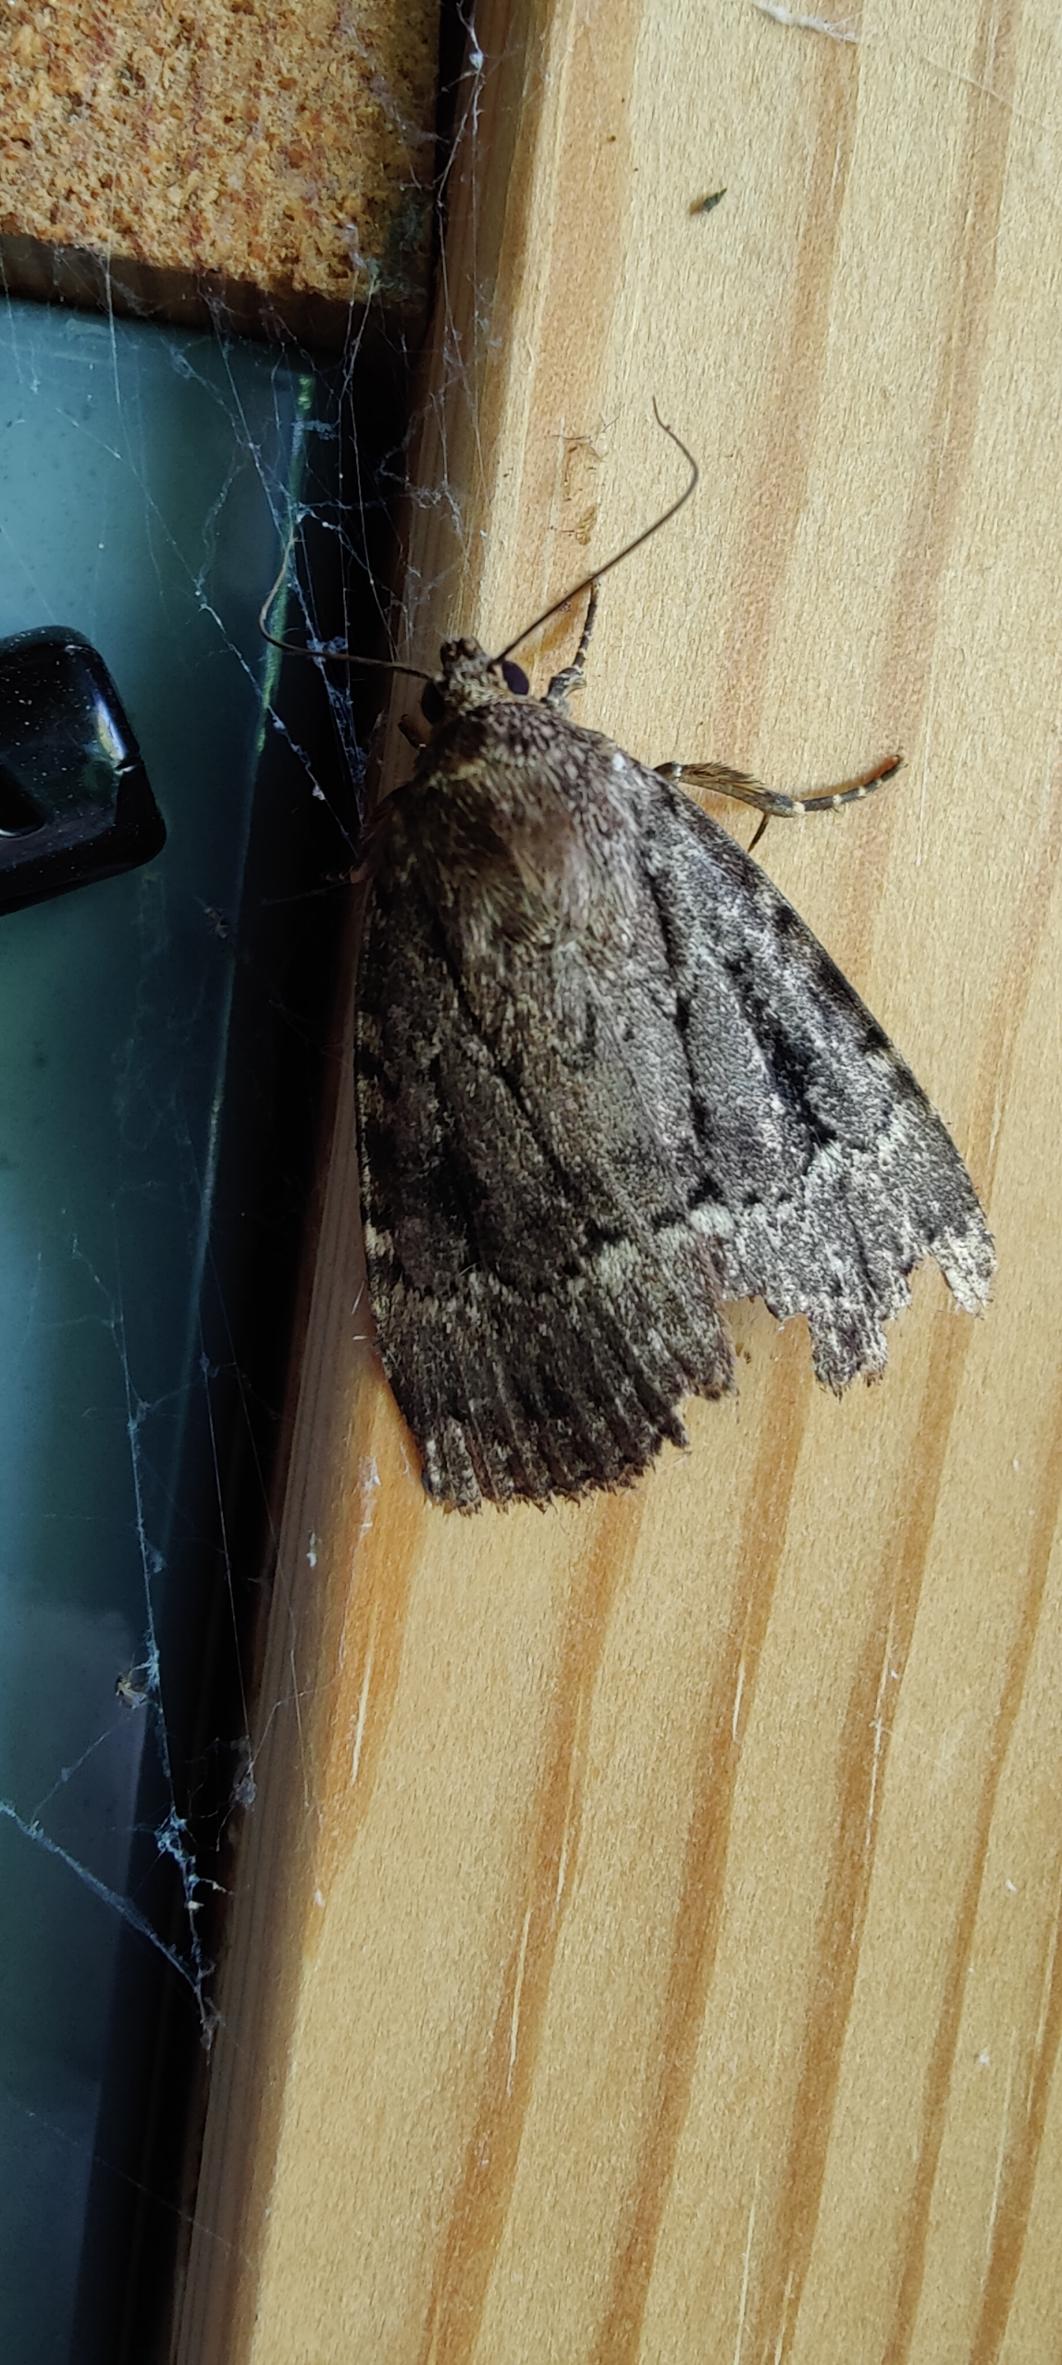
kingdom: Animalia
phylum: Arthropoda
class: Insecta
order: Lepidoptera
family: Noctuidae
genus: Amphipyra
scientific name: Amphipyra pyramidea
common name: Pyramideugle
